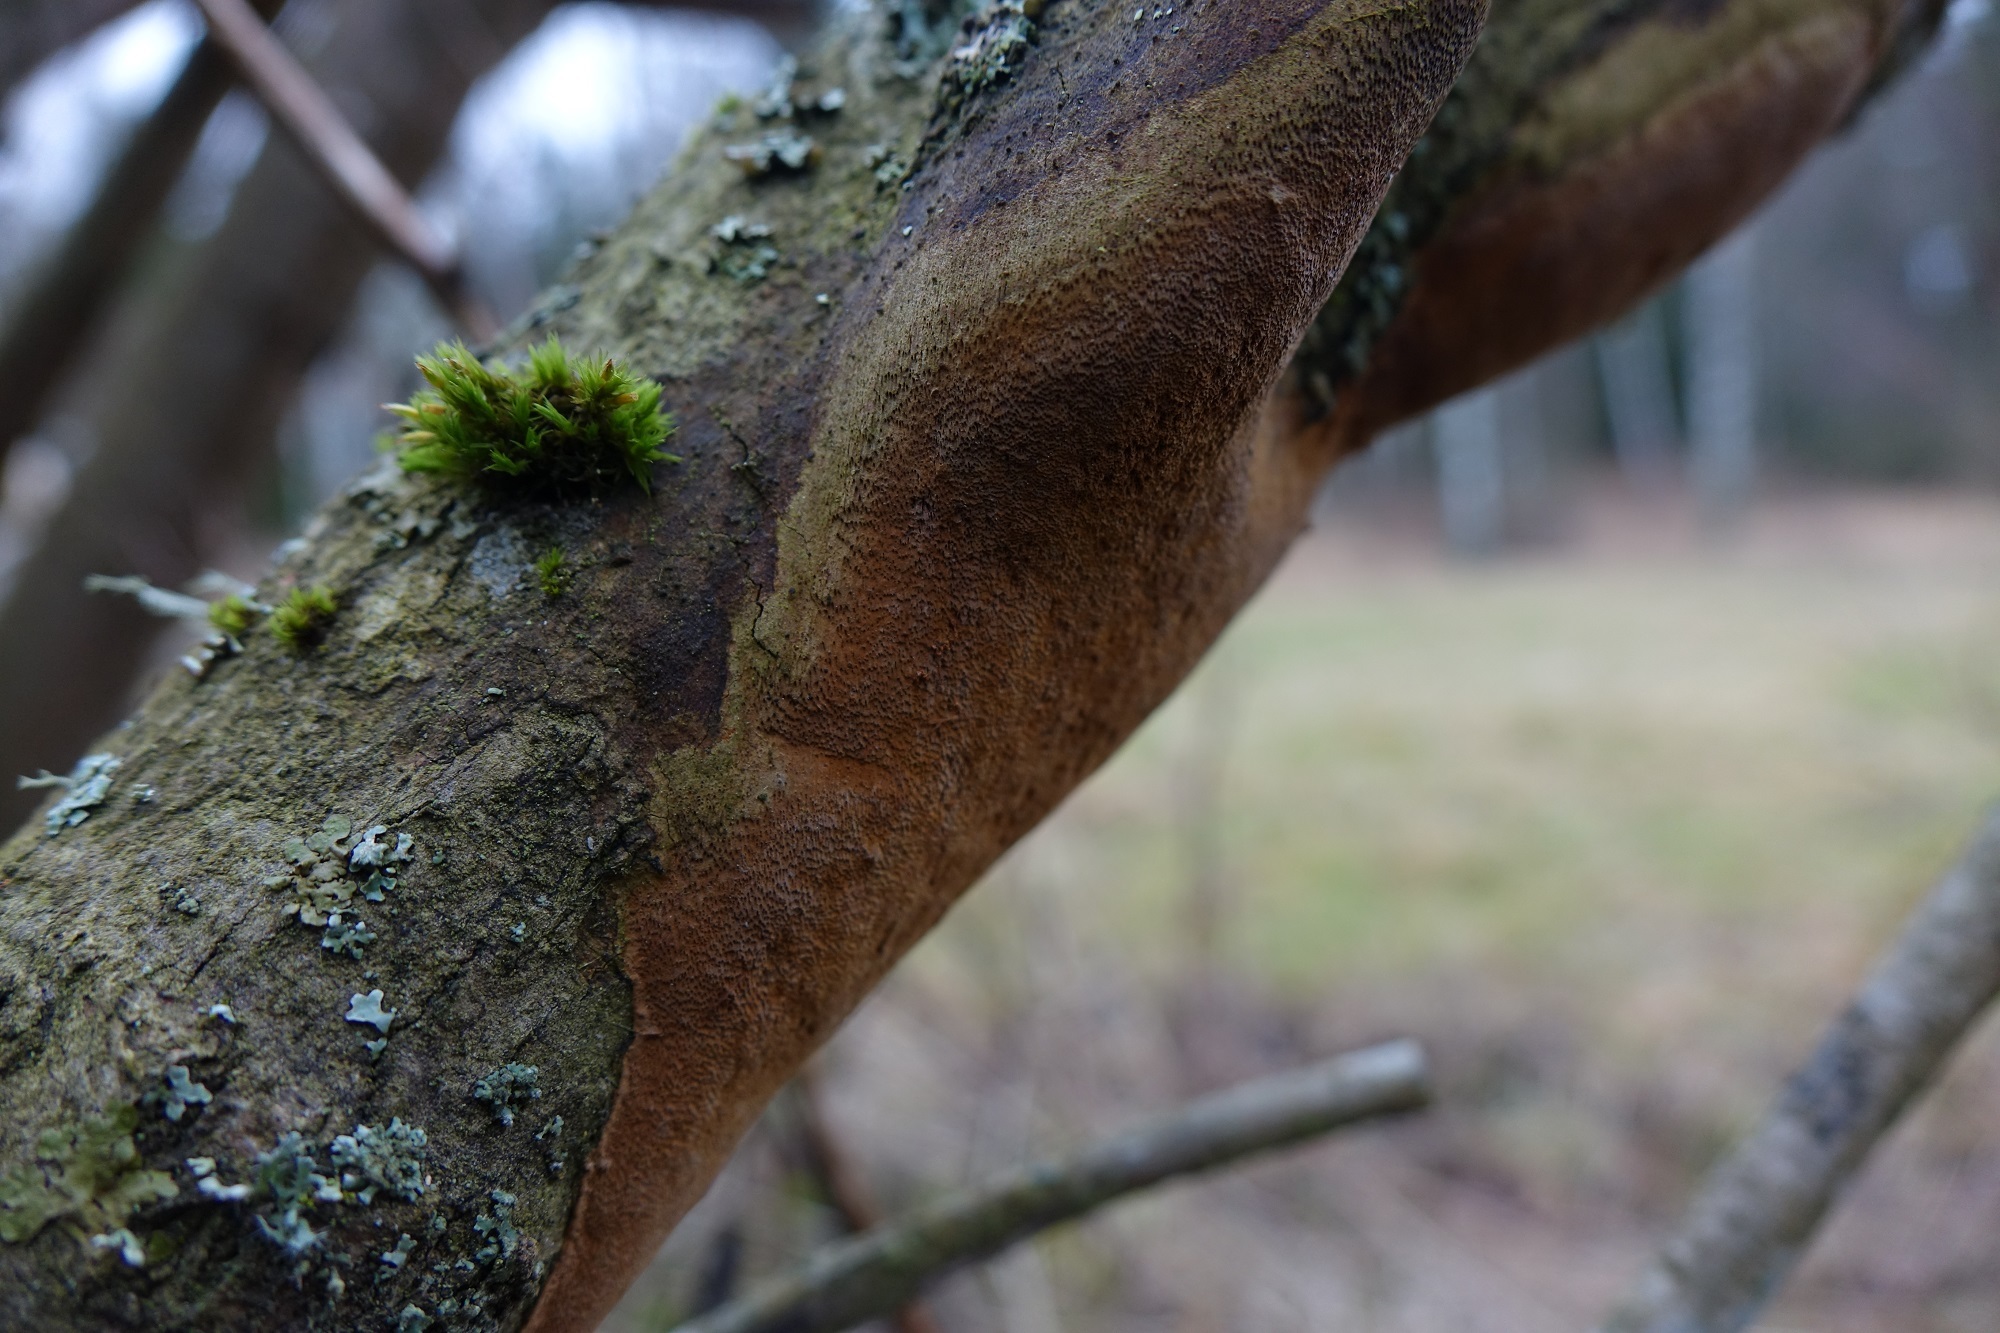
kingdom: Fungi
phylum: Basidiomycota
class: Agaricomycetes
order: Hymenochaetales
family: Hymenochaetaceae
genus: Fomitiporia
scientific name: Fomitiporia punctata
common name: Elbowpatch crust
